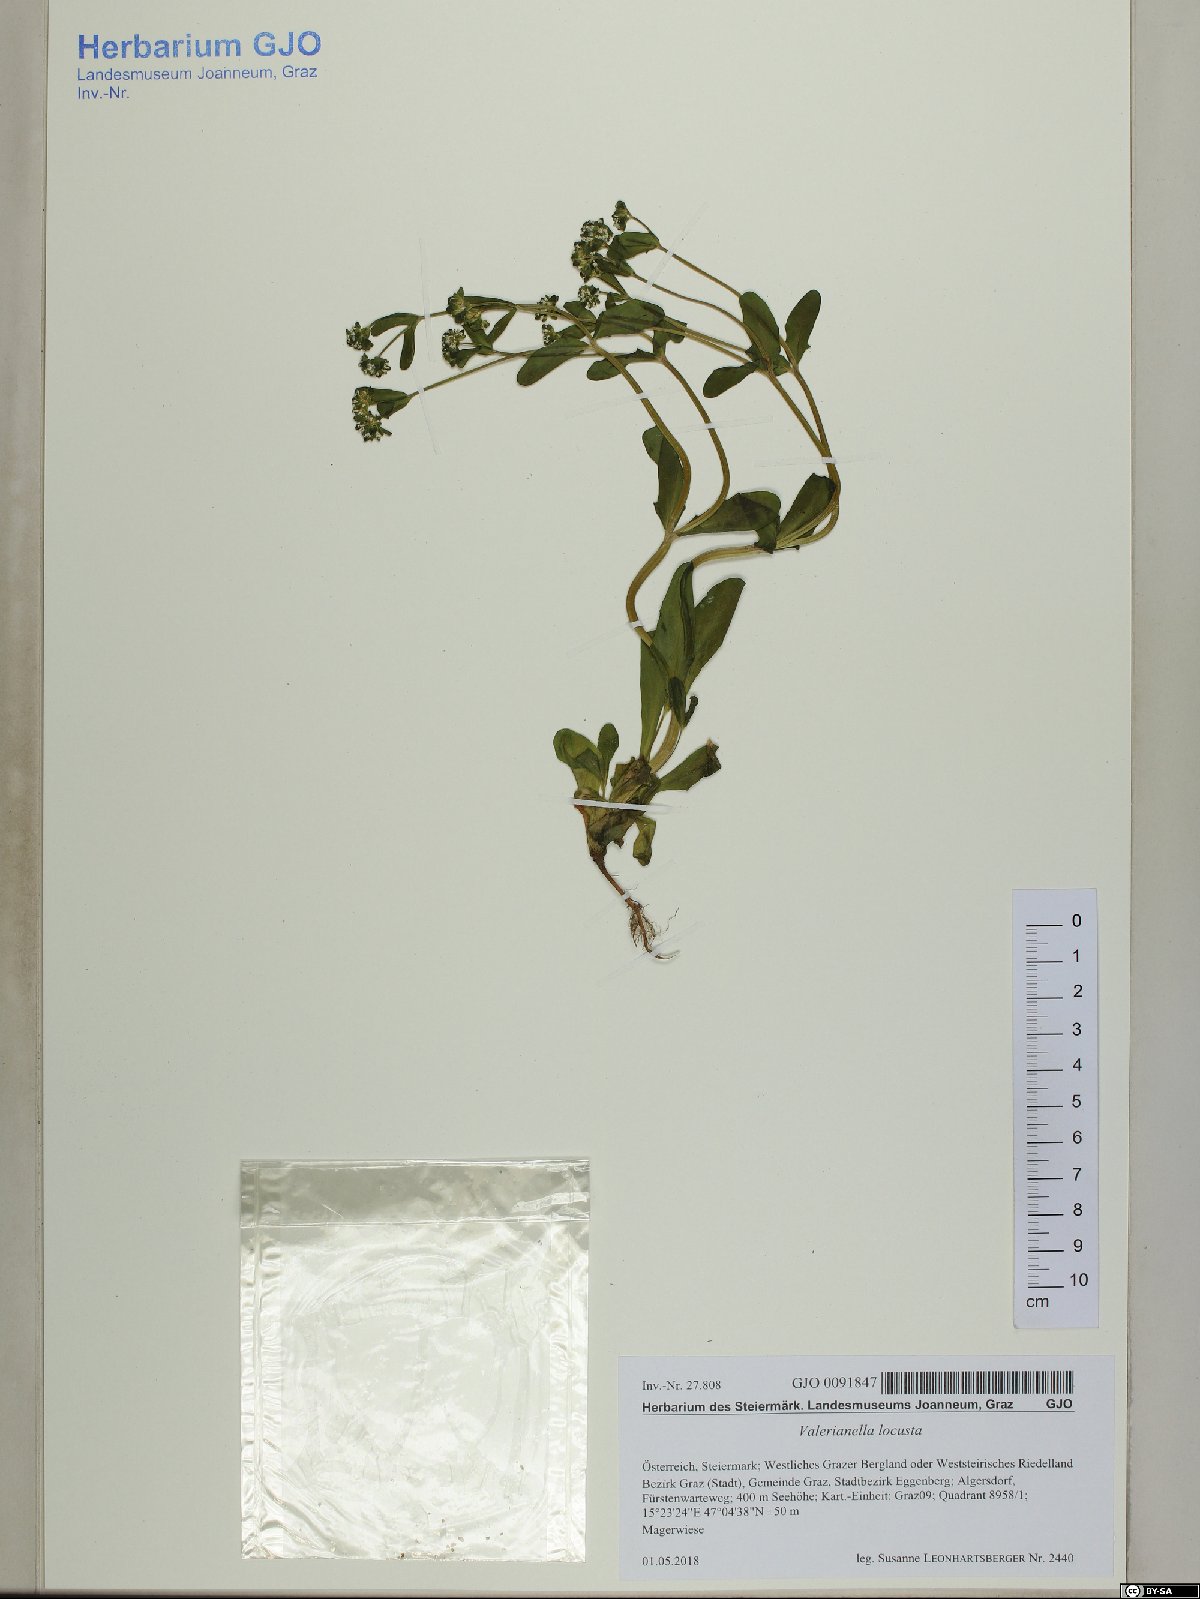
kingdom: Plantae
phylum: Tracheophyta
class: Magnoliopsida
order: Dipsacales
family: Caprifoliaceae
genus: Valerianella
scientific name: Valerianella locusta
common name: Common cornsalad
